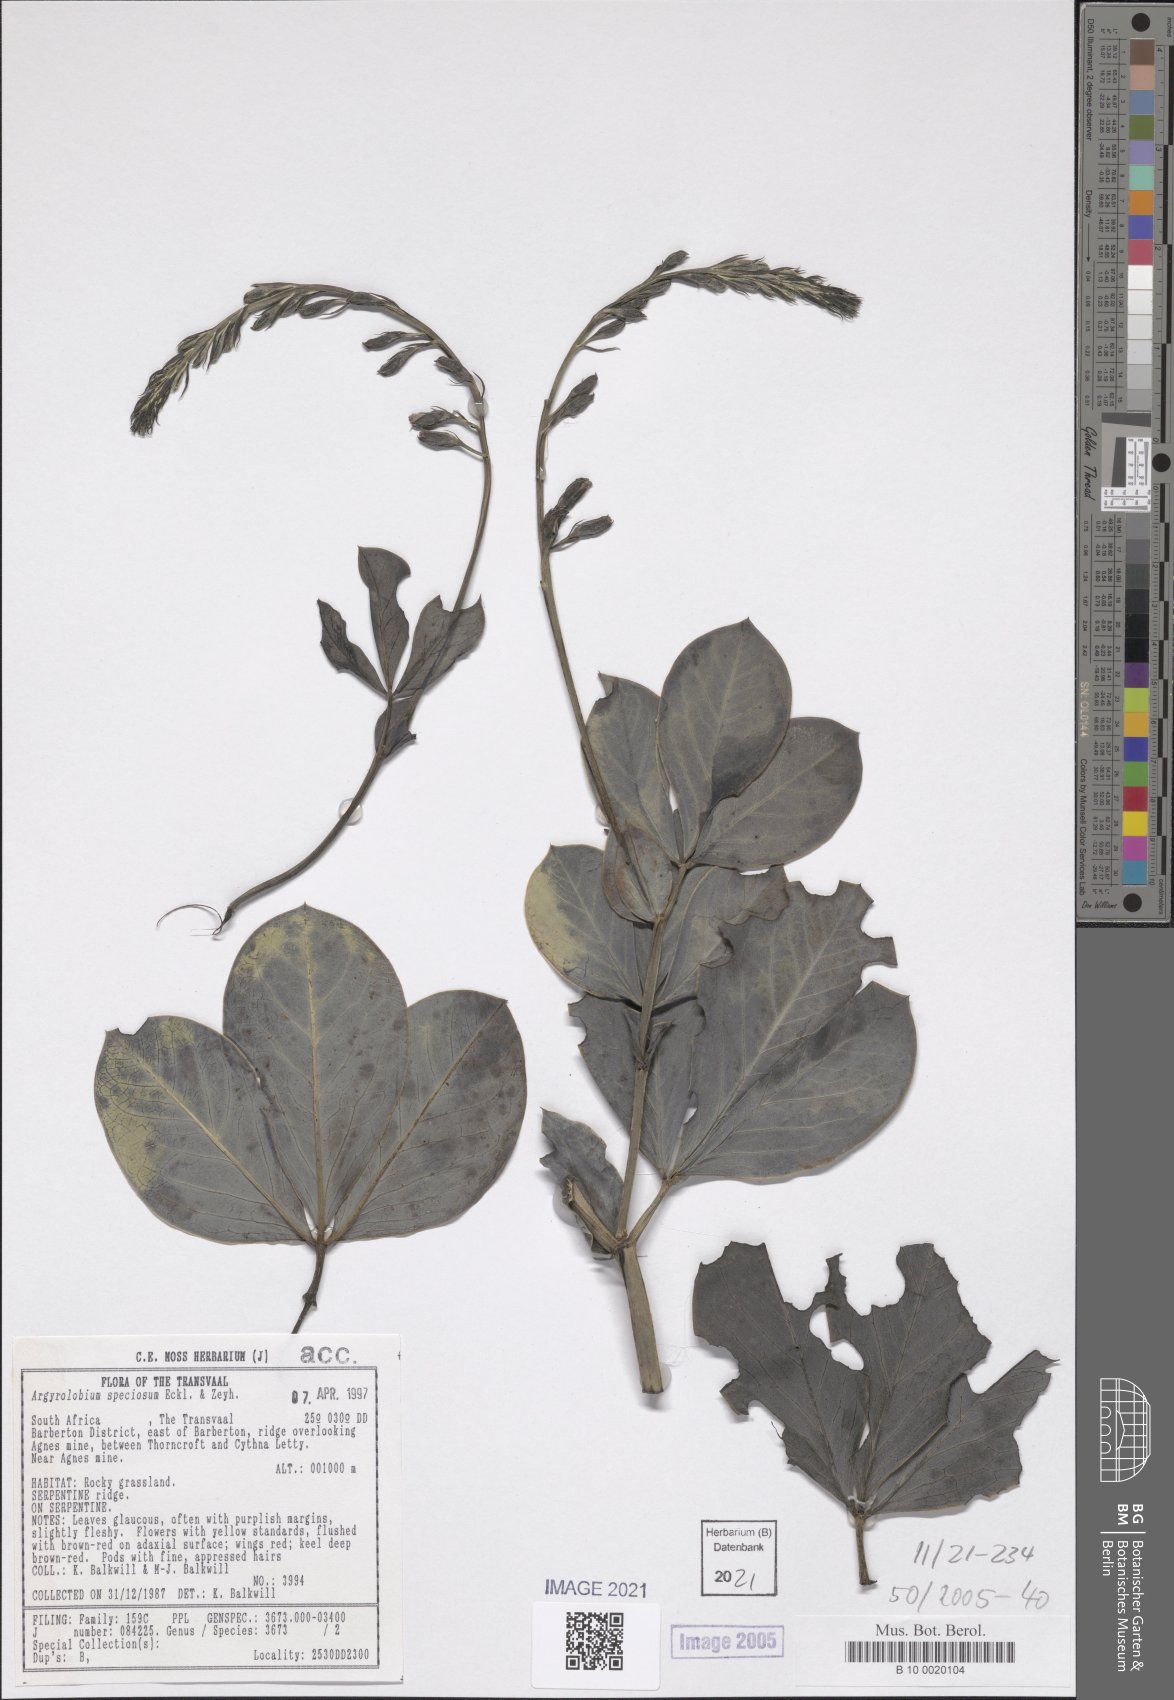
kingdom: Plantae
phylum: Tracheophyta
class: Magnoliopsida
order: Fabales
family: Fabaceae
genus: Argyrolobium
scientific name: Argyrolobium speciosum
